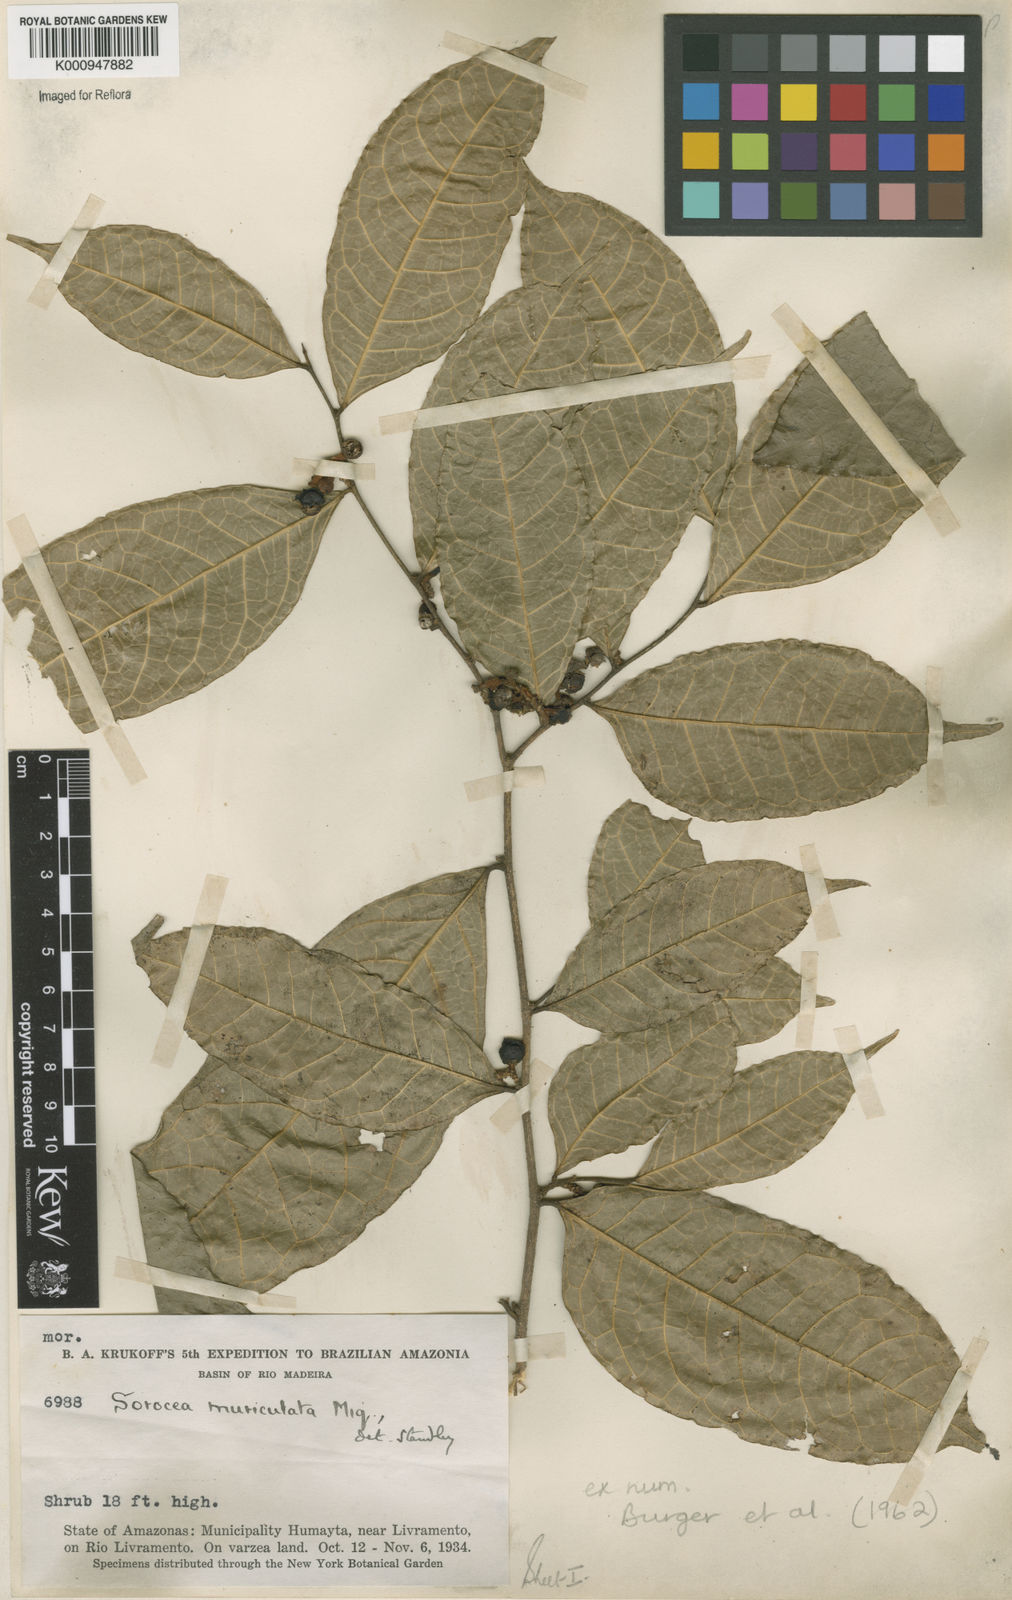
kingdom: Plantae
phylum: Tracheophyta
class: Magnoliopsida
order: Rosales
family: Moraceae
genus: Sorocea
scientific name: Sorocea muriculata
